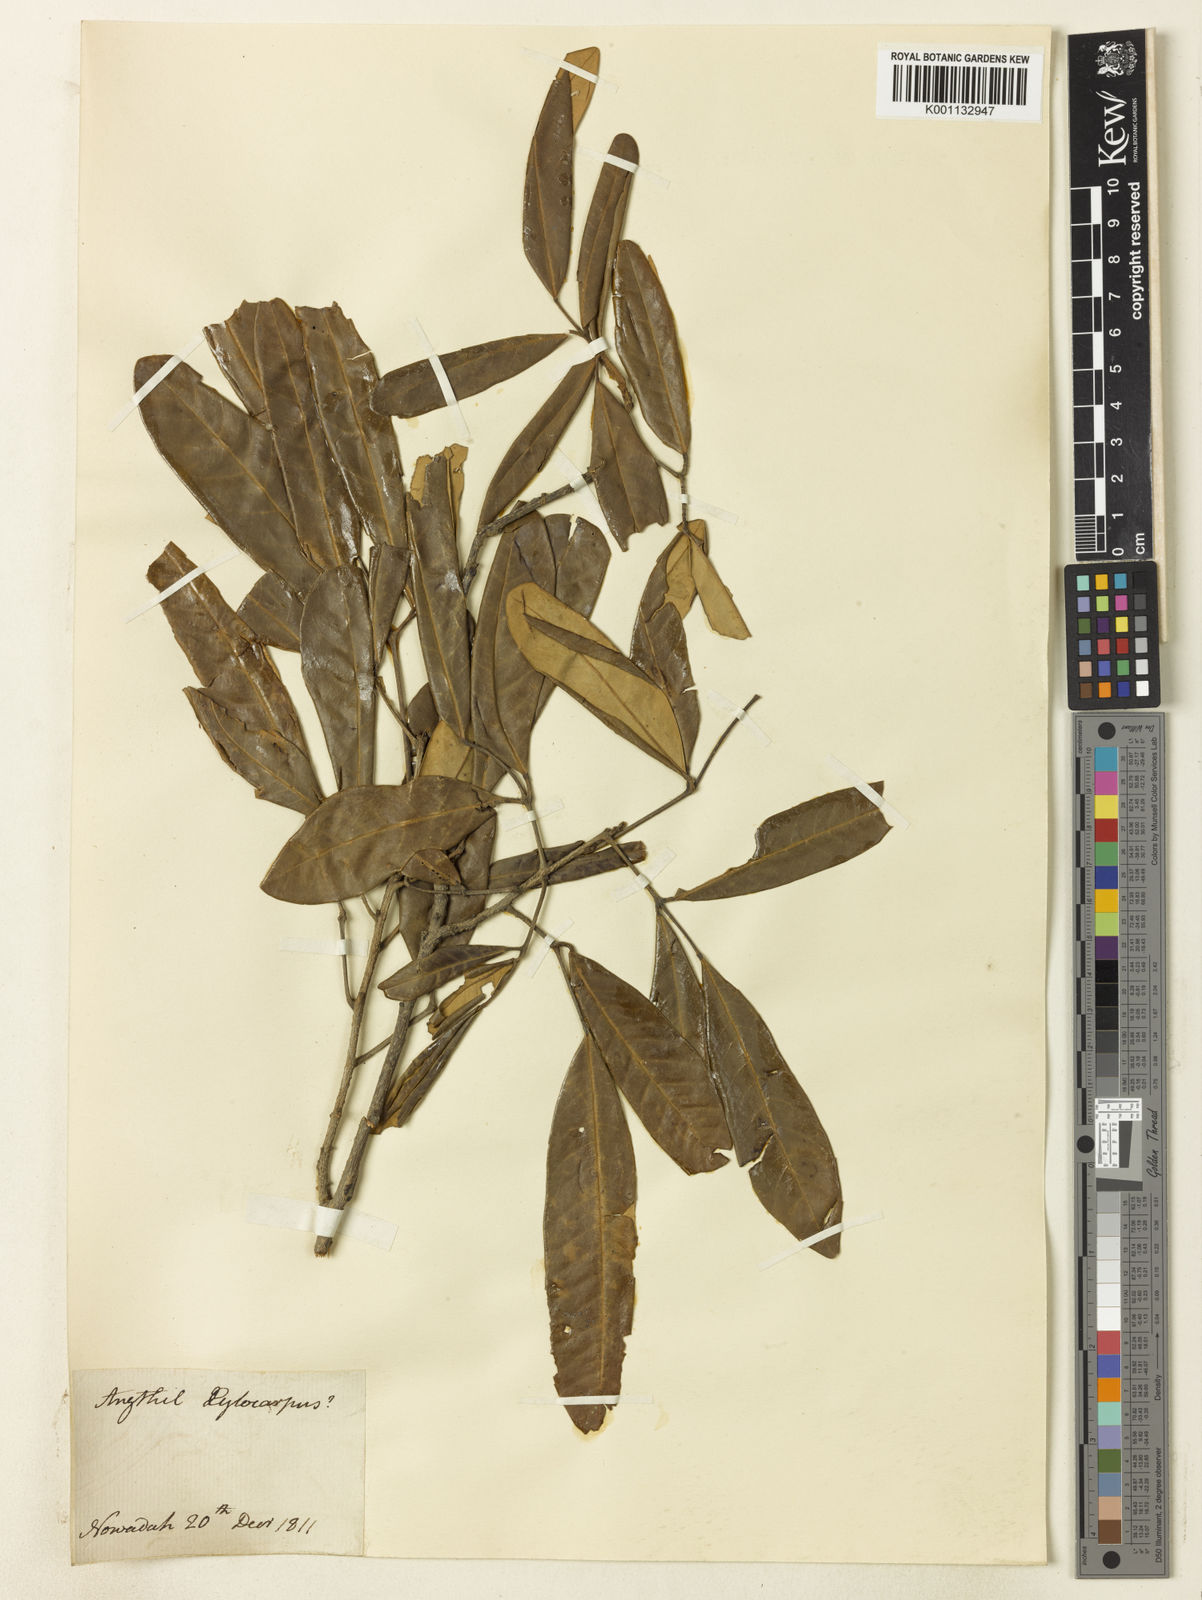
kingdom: Plantae
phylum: Tracheophyta
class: Magnoliopsida
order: Sapindales
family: Meliaceae
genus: Xylocarpus
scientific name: Xylocarpus
